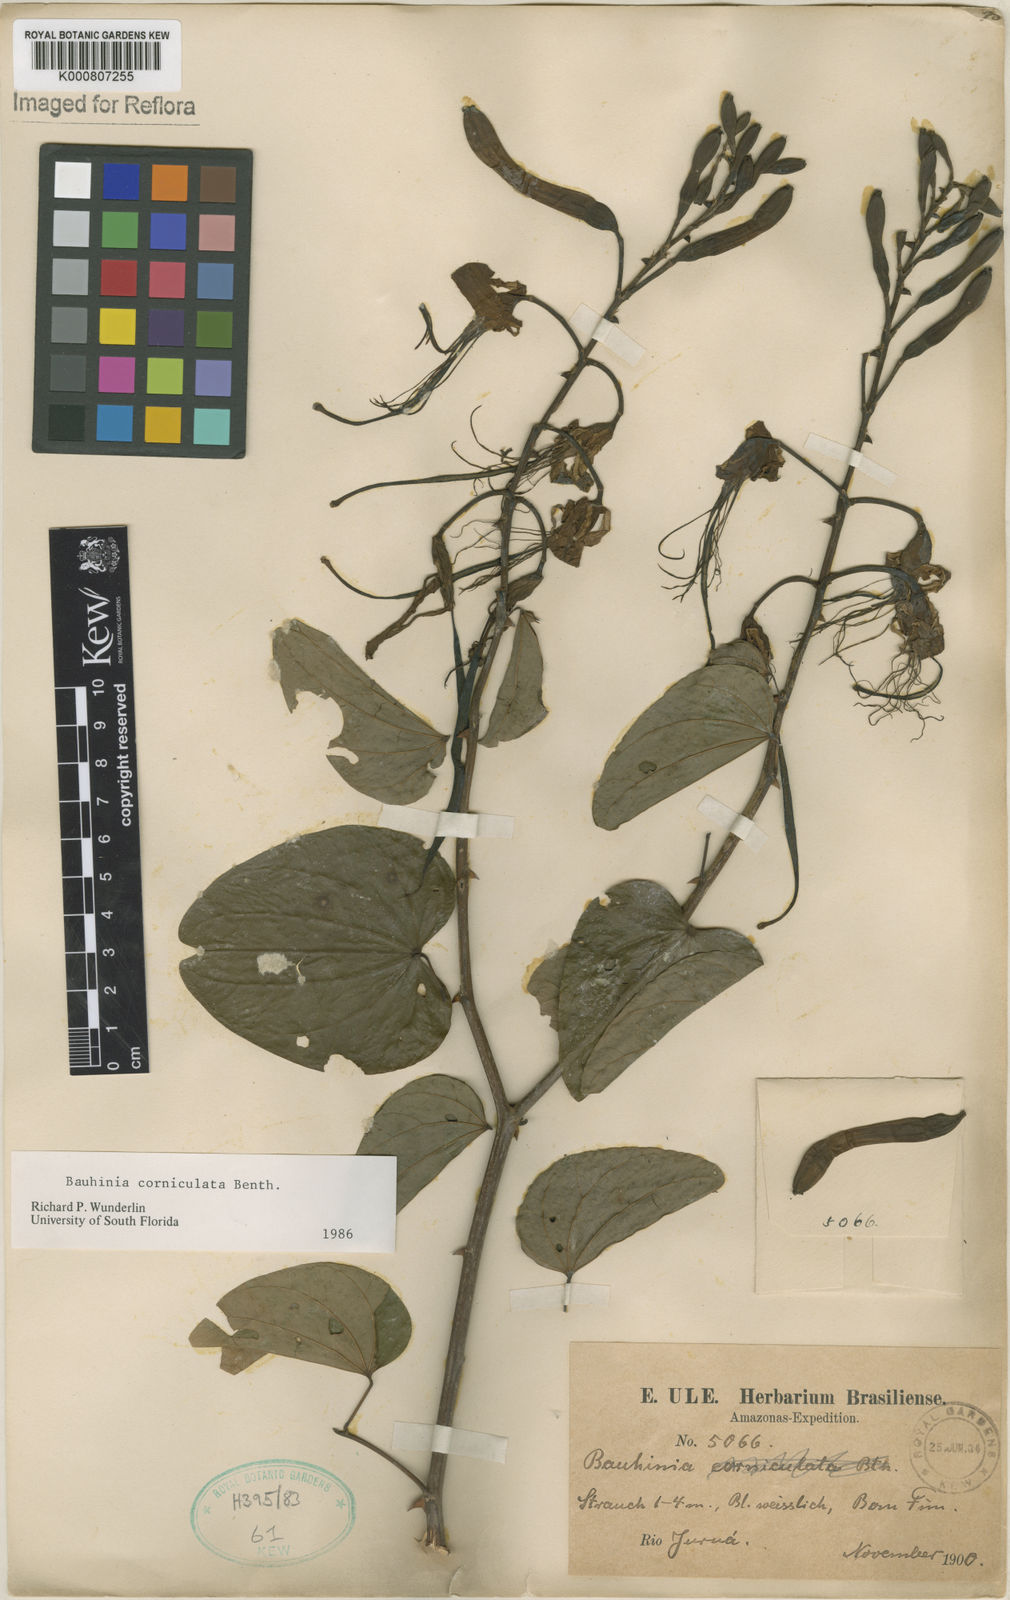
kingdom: Plantae
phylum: Tracheophyta
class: Magnoliopsida
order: Fabales
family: Fabaceae
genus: Bauhinia
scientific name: Bauhinia corniculata
